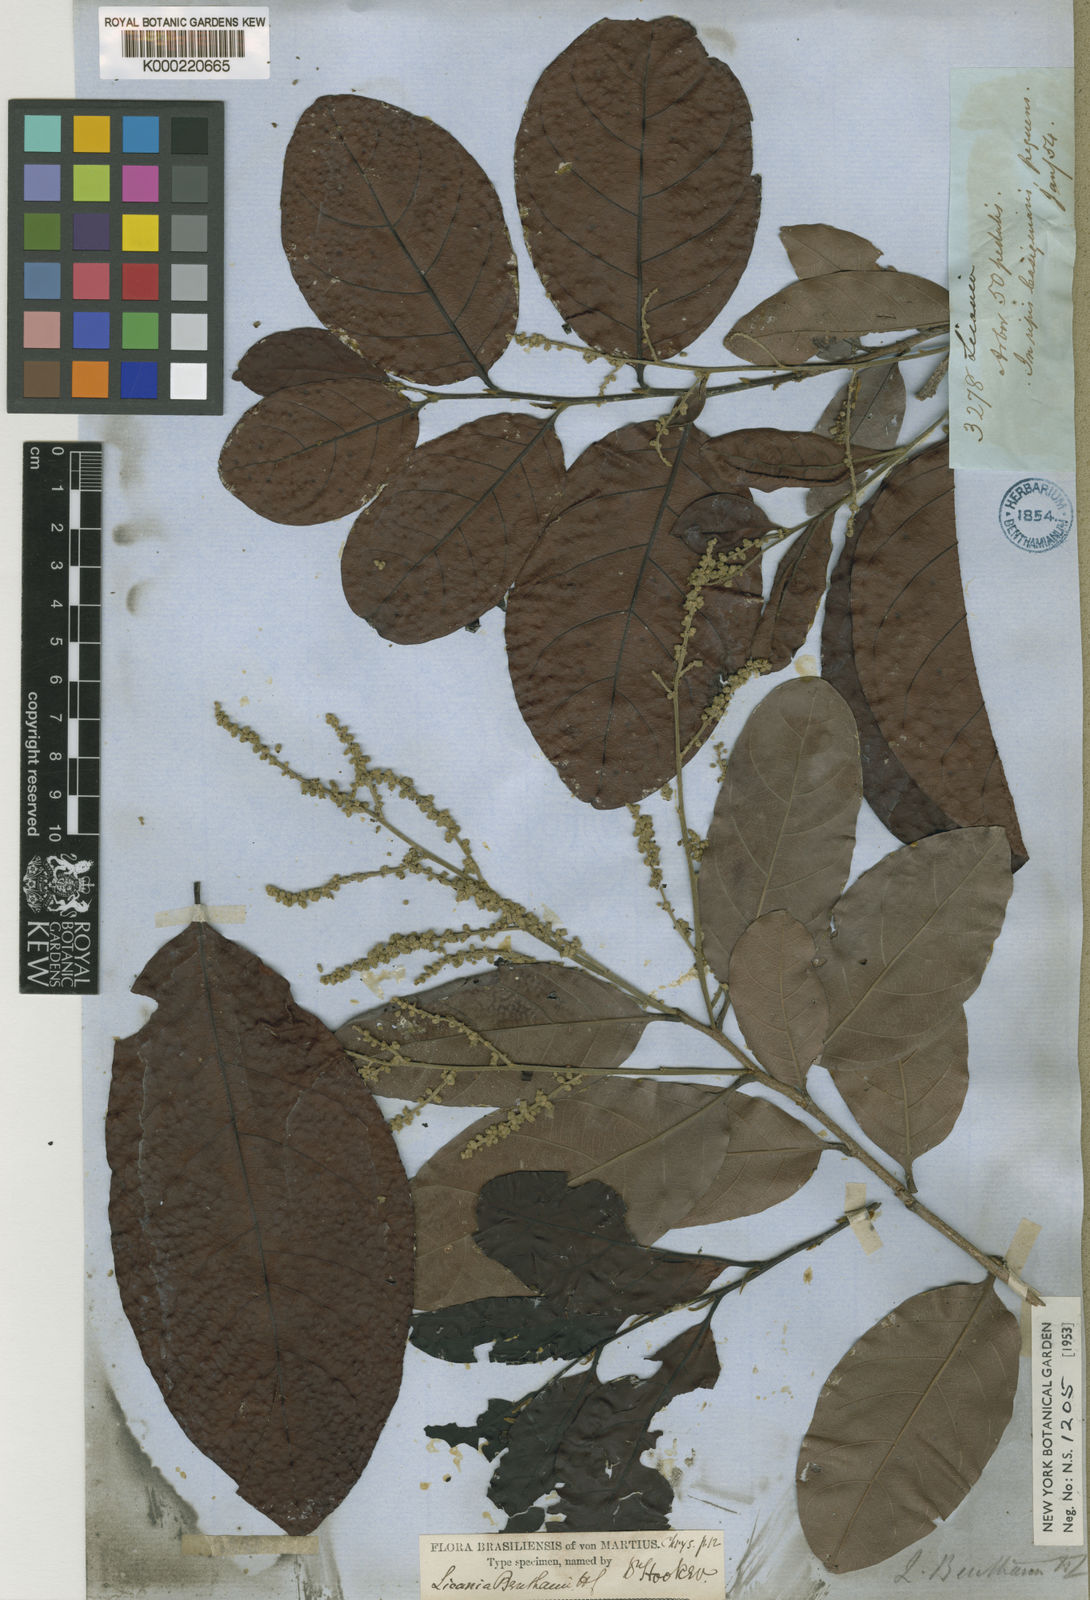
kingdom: Plantae
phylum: Tracheophyta
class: Magnoliopsida
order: Malpighiales
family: Chrysobalanaceae
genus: Hymenopus
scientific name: Hymenopus heteromorphus
